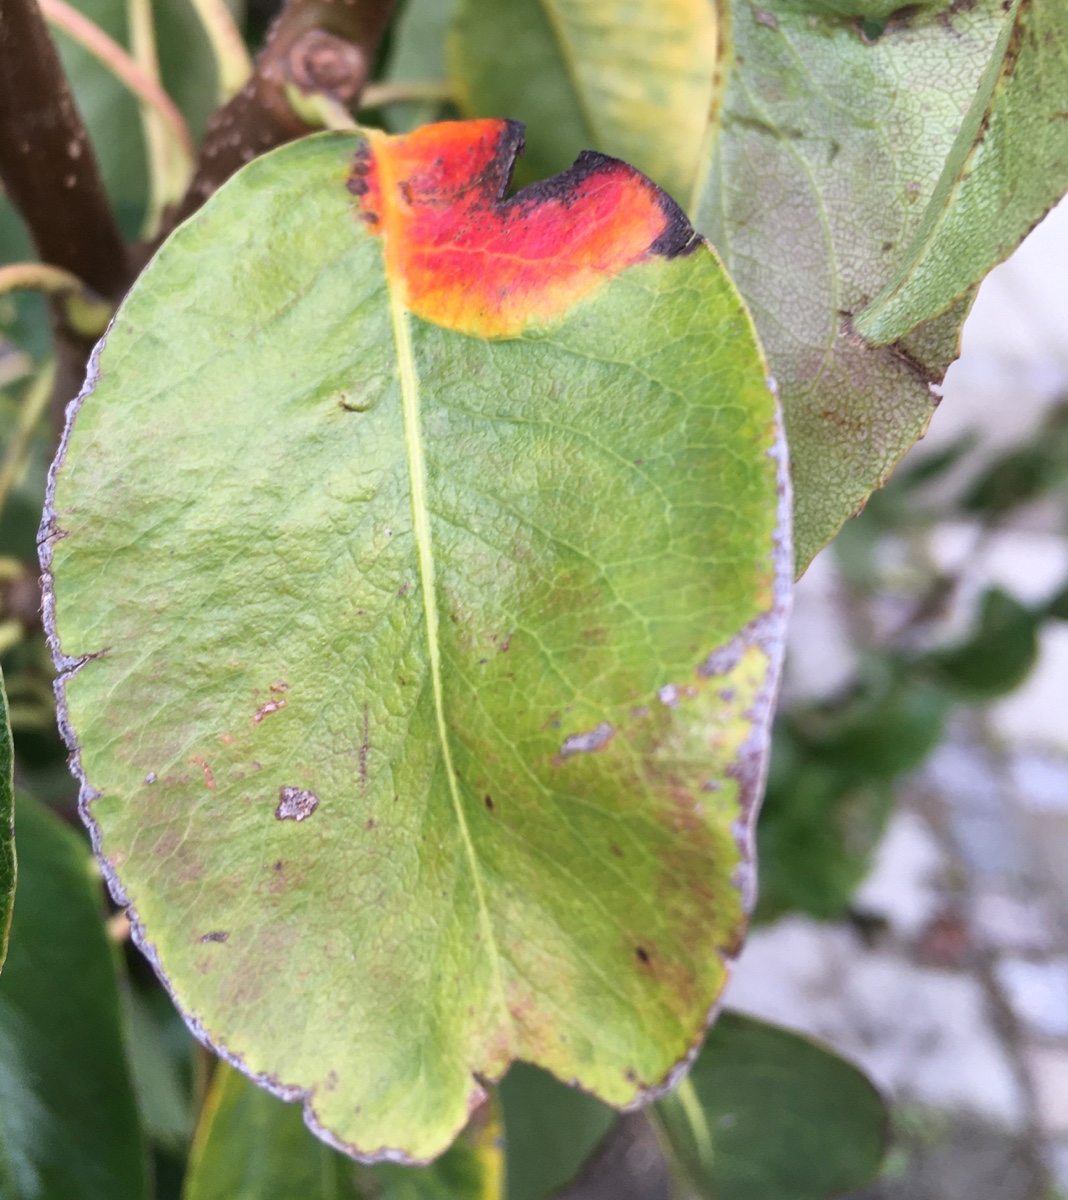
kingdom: Fungi
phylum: Basidiomycota
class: Pucciniomycetes
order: Pucciniales
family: Gymnosporangiaceae
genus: Gymnosporangium
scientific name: Gymnosporangium sabinae
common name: pæregitter-bævrerust
